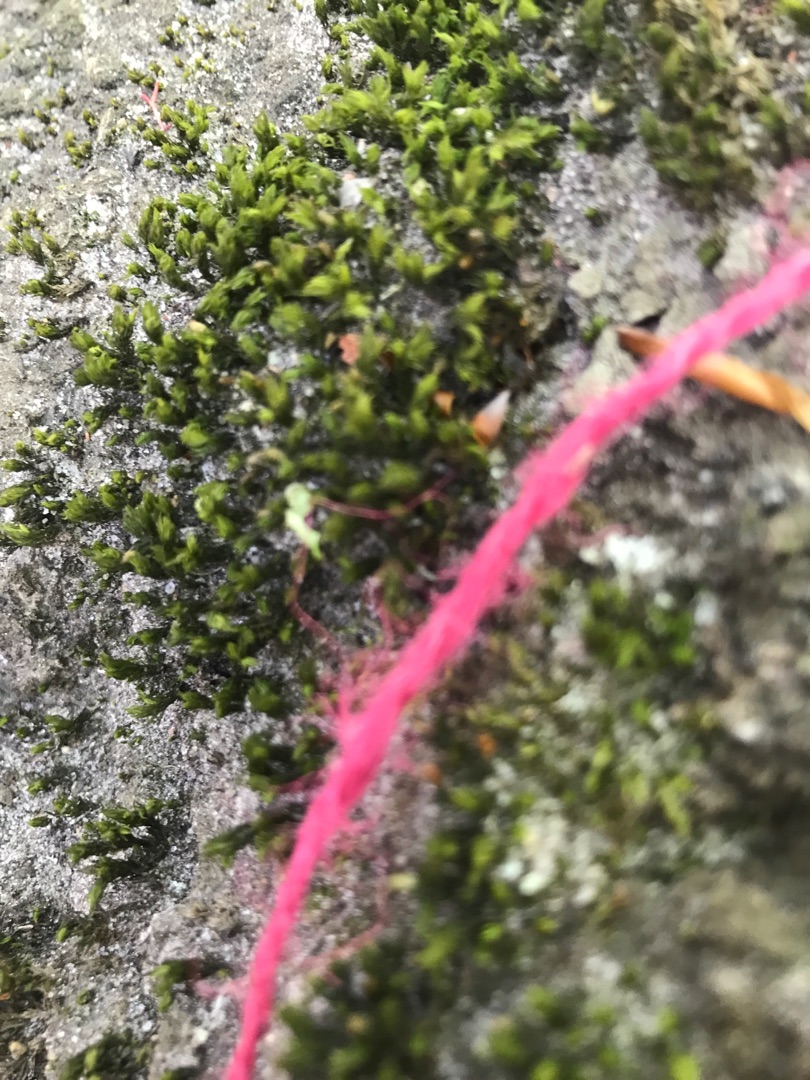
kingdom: Plantae
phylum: Bryophyta
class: Bryopsida
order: Orthotrichales
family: Orthotrichaceae
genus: Lewinskya
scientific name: Lewinskya affinis
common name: Almindelig furehætte
